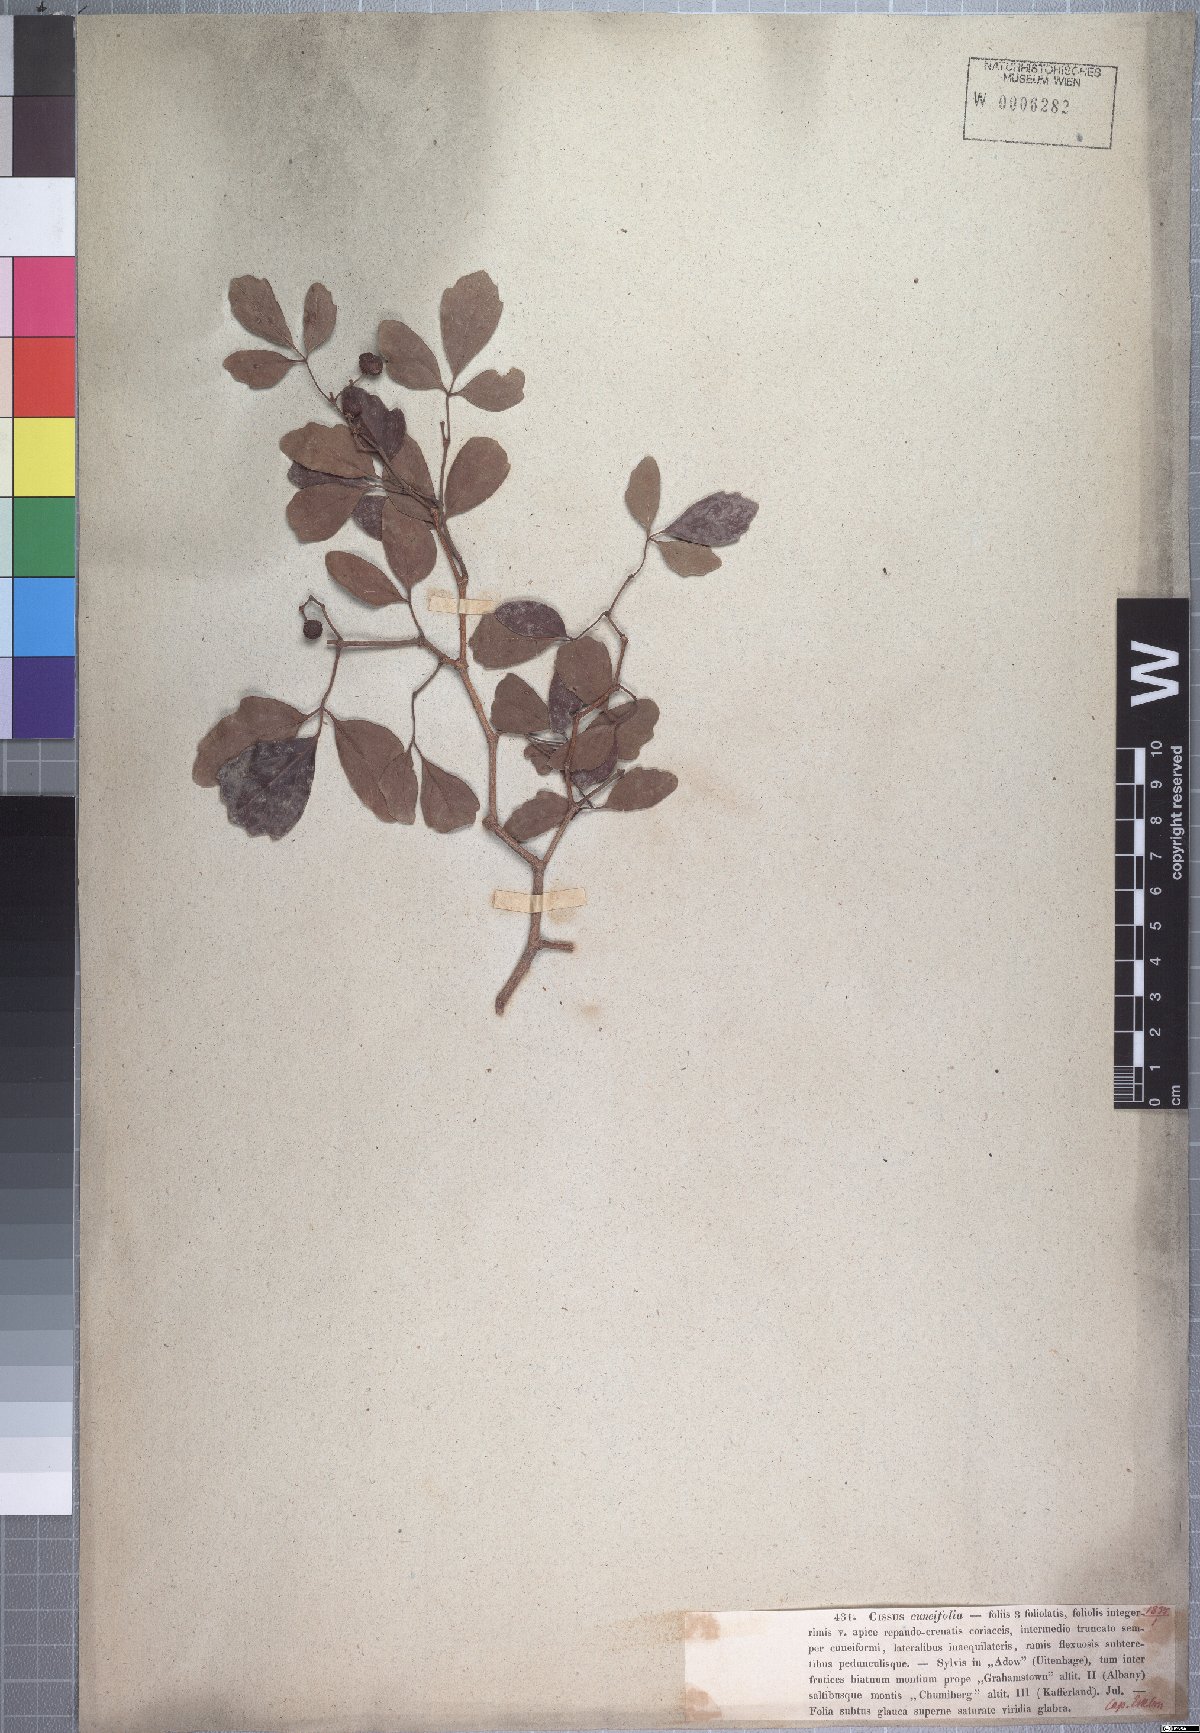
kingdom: Plantae
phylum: Tracheophyta
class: Magnoliopsida
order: Vitales
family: Vitaceae
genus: Rhoicissus
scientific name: Rhoicissus tridentata
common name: Common forest grape
